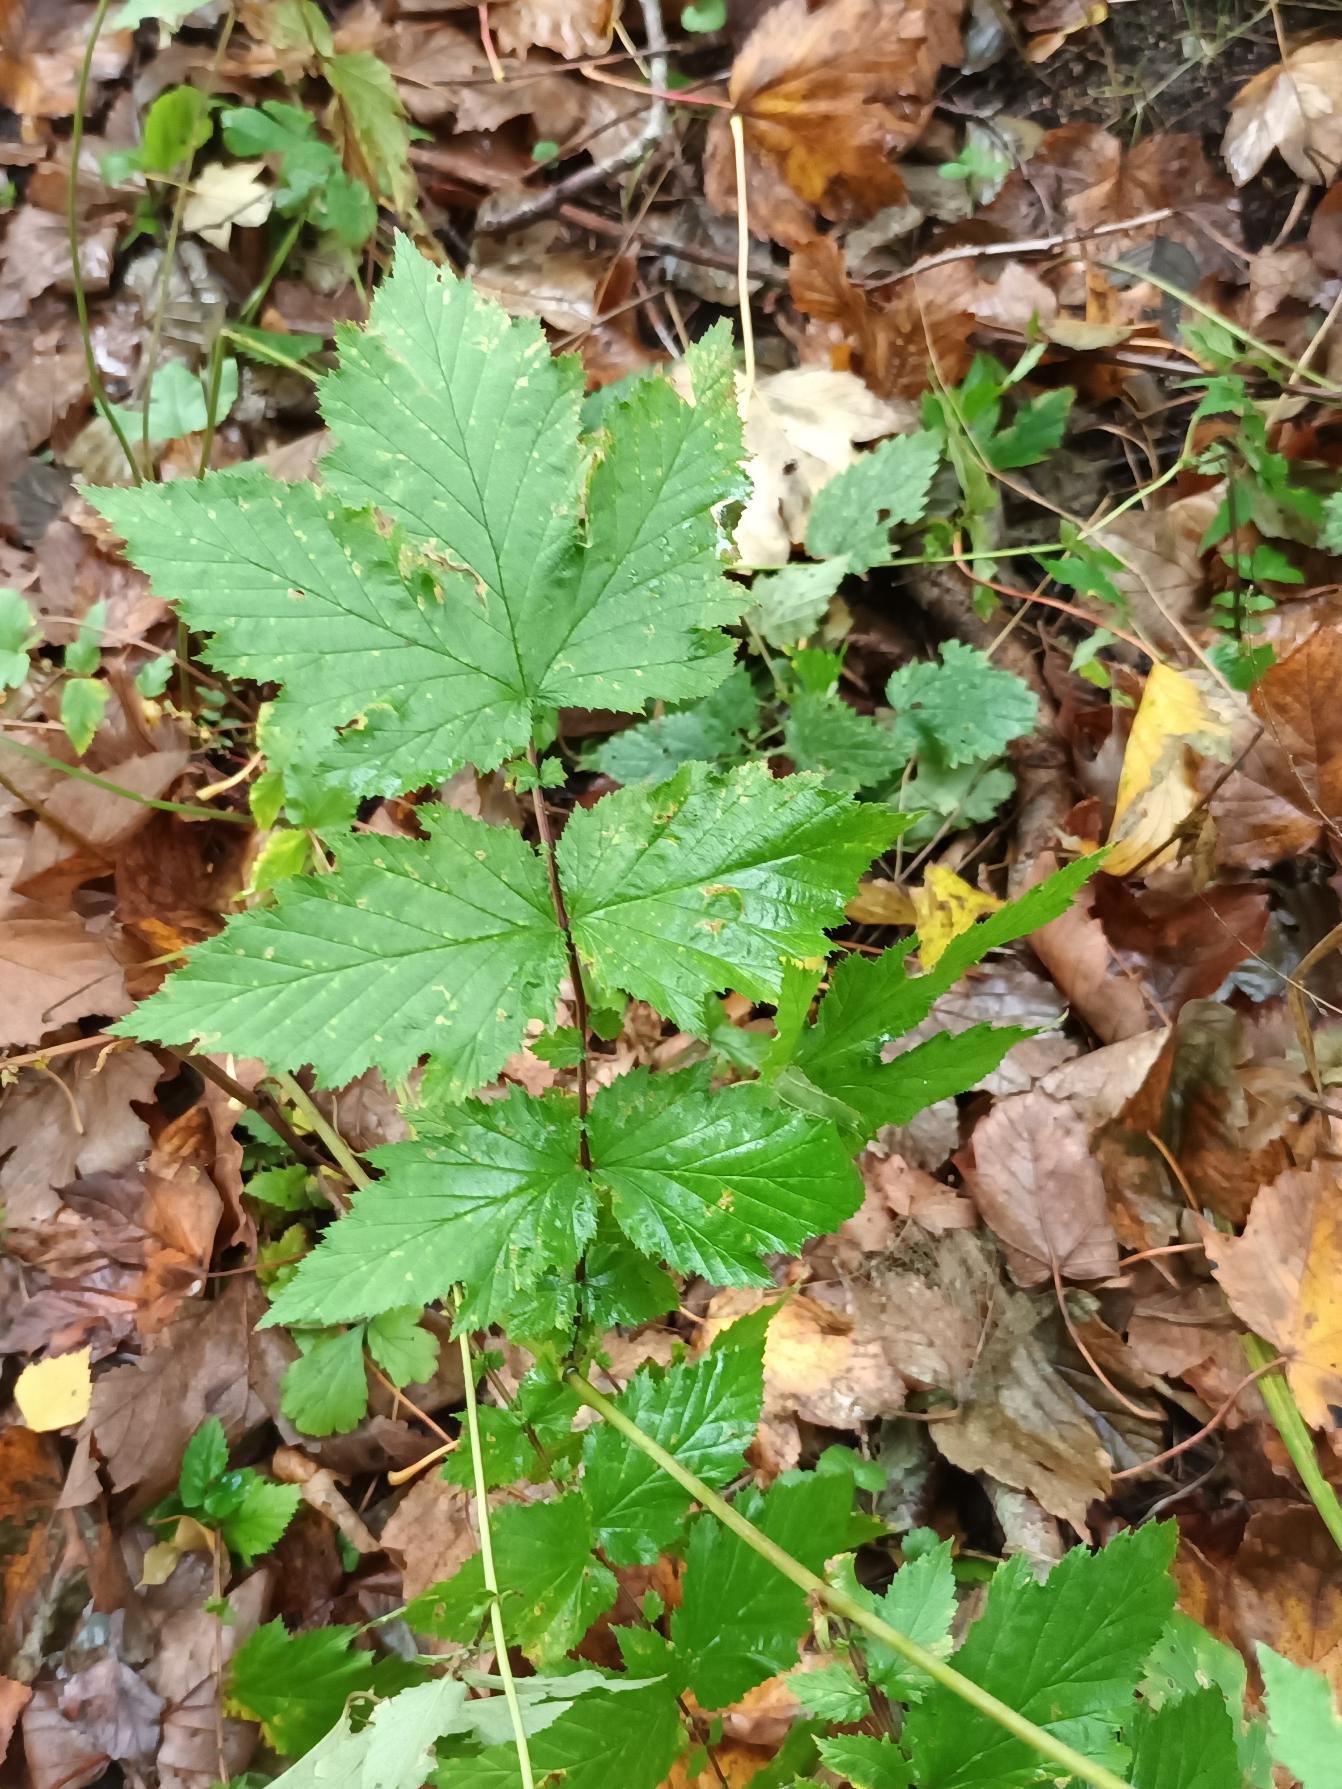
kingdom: Plantae
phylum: Tracheophyta
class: Magnoliopsida
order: Rosales
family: Rosaceae
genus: Filipendula
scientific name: Filipendula ulmaria
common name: Almindelig mjødurt
